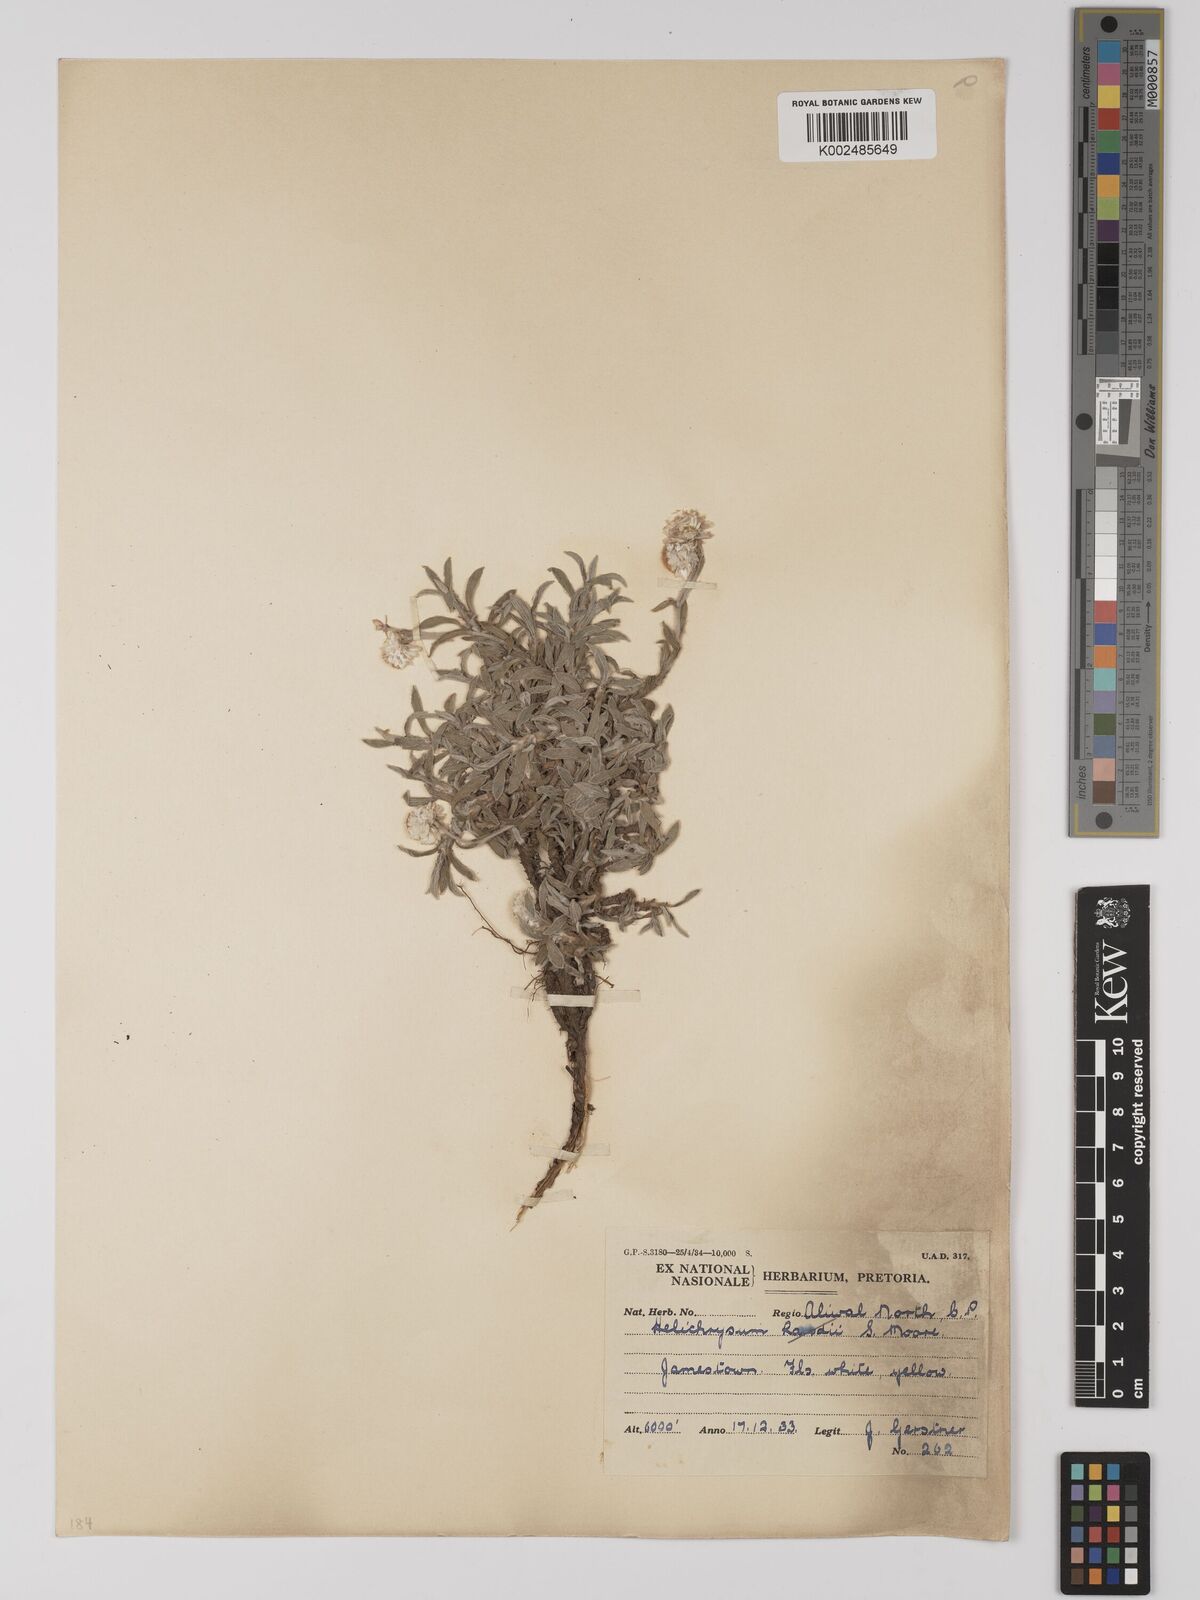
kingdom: Plantae
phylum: Tracheophyta
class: Magnoliopsida
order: Asterales
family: Asteraceae
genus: Helichrysum
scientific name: Helichrysum chionosphaerum
